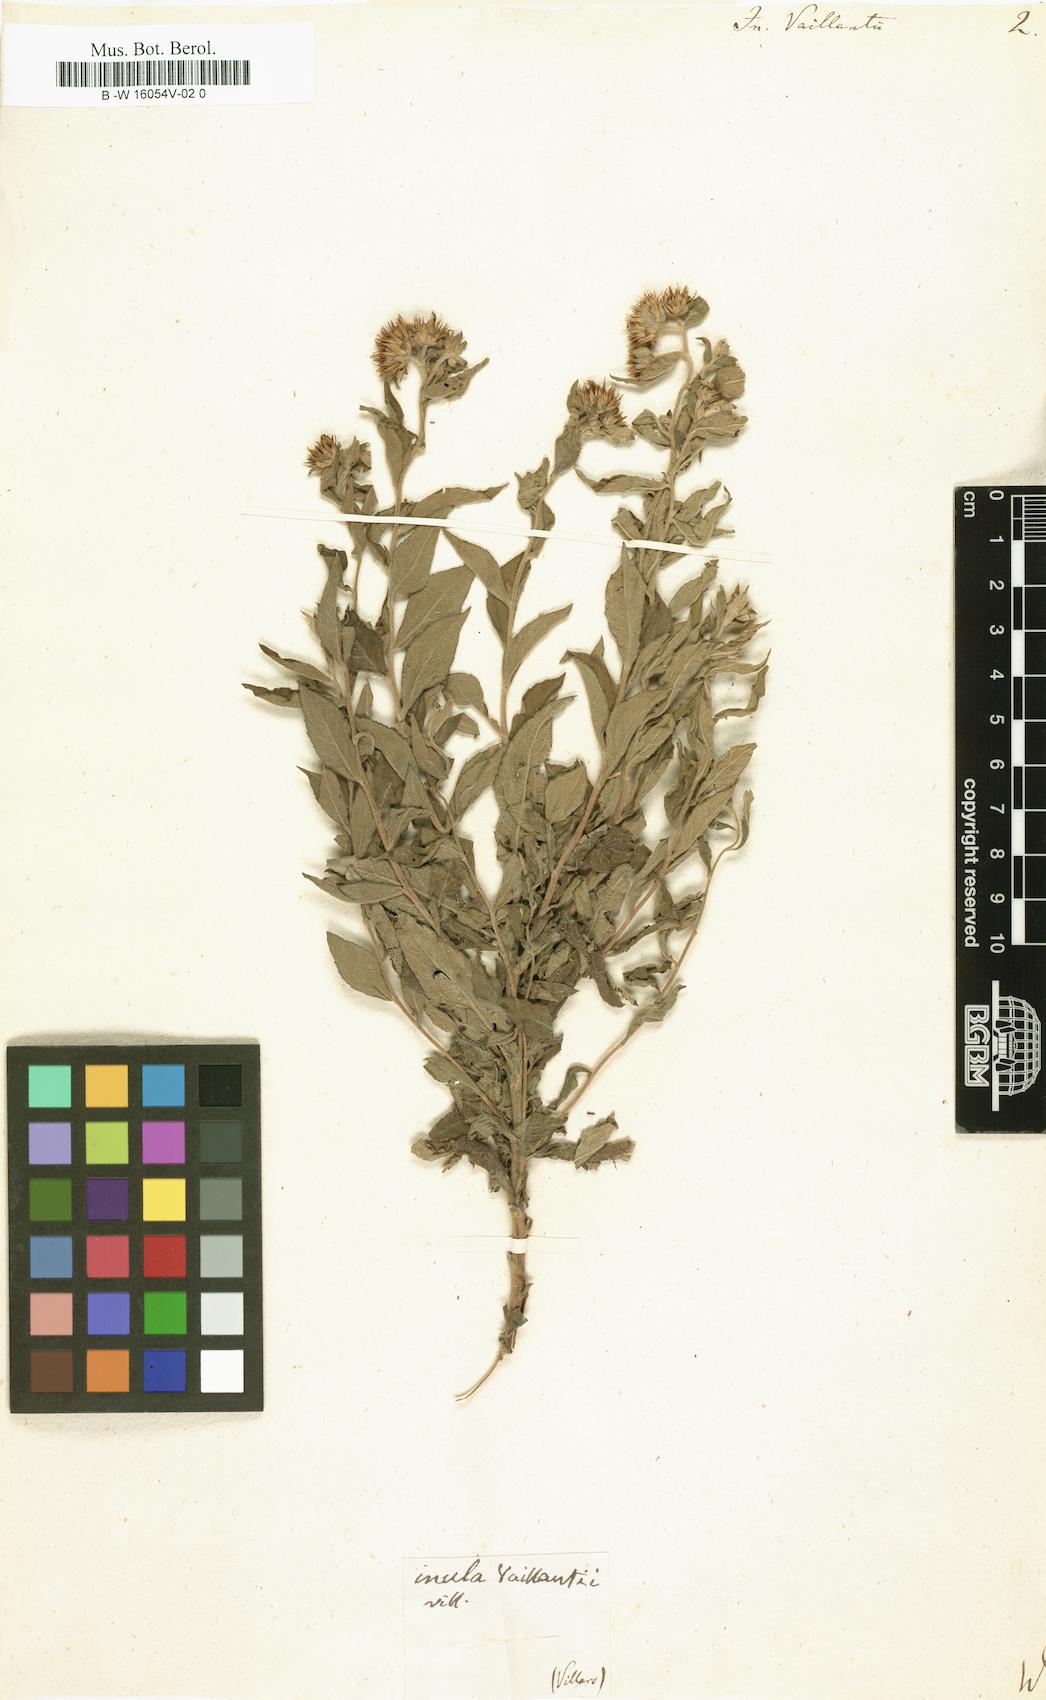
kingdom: Plantae
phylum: Tracheophyta
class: Magnoliopsida
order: Asterales
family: Asteraceae
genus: Pentanema
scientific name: Pentanema helveticum
